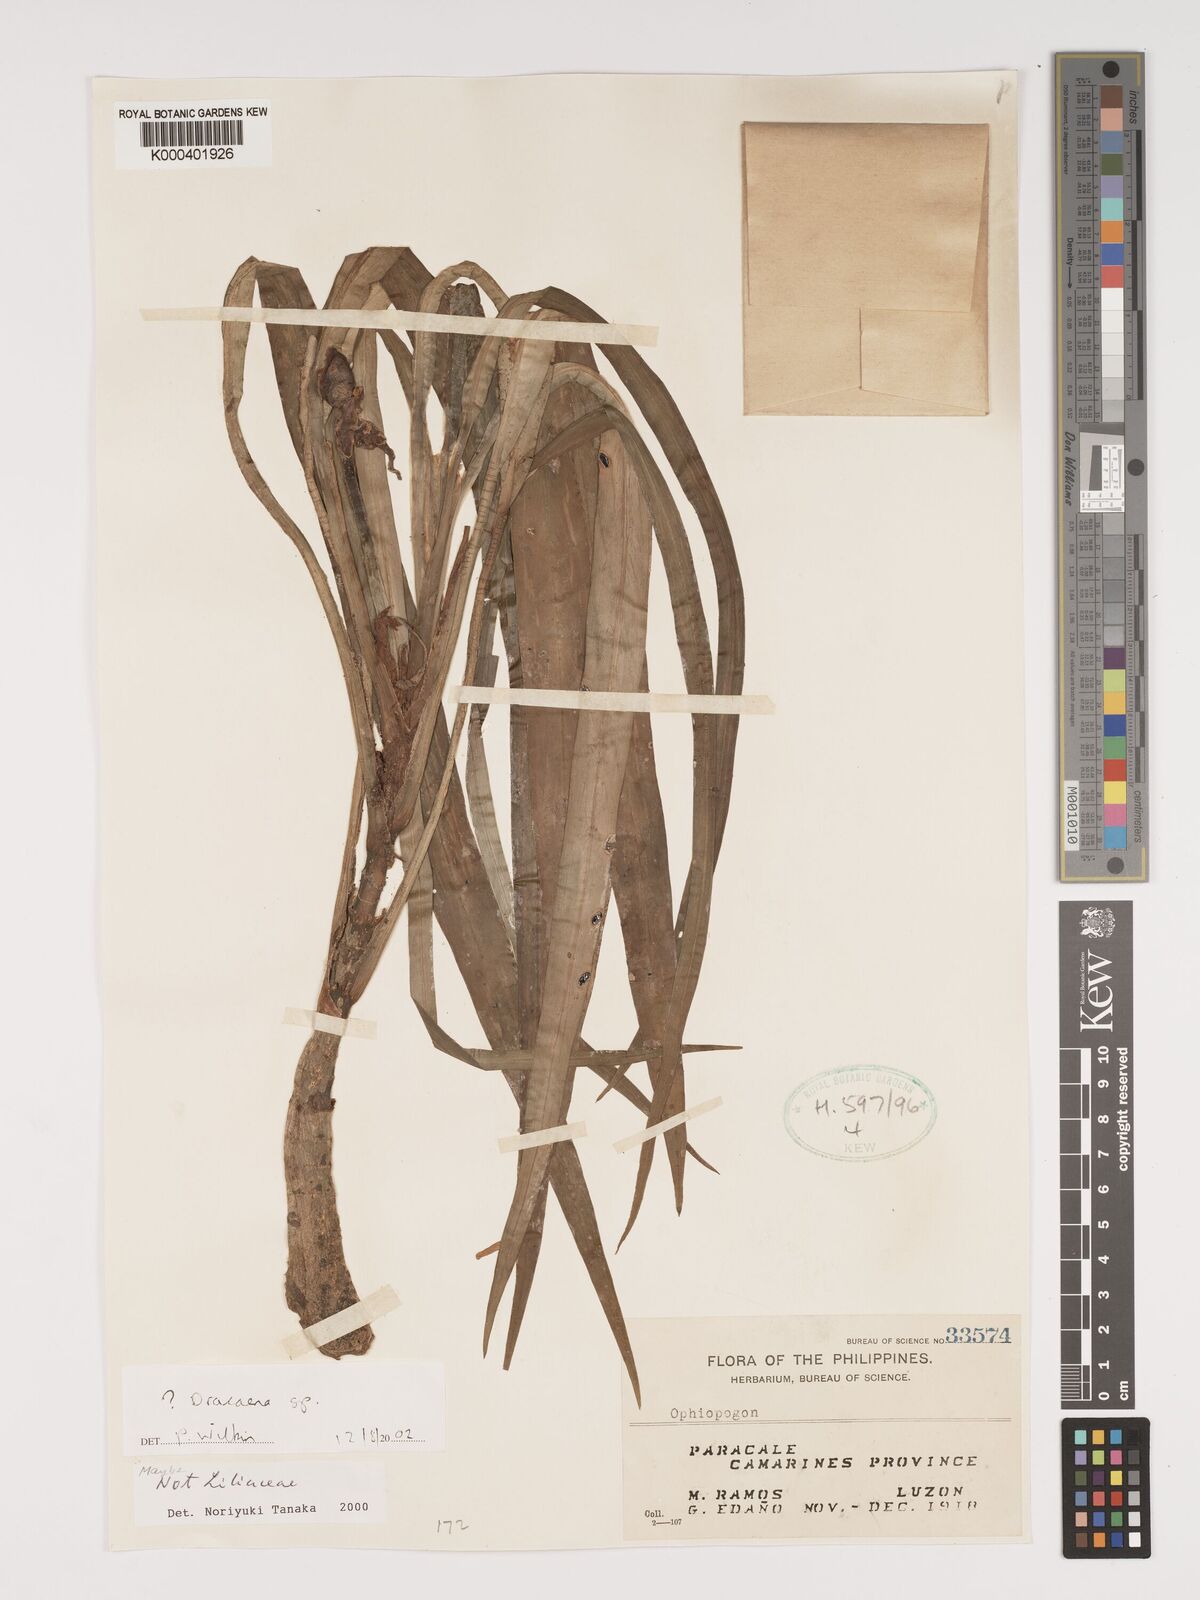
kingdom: Plantae
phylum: Tracheophyta
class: Liliopsida
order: Asparagales
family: Asparagaceae
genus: Dracaena
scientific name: Dracaena
